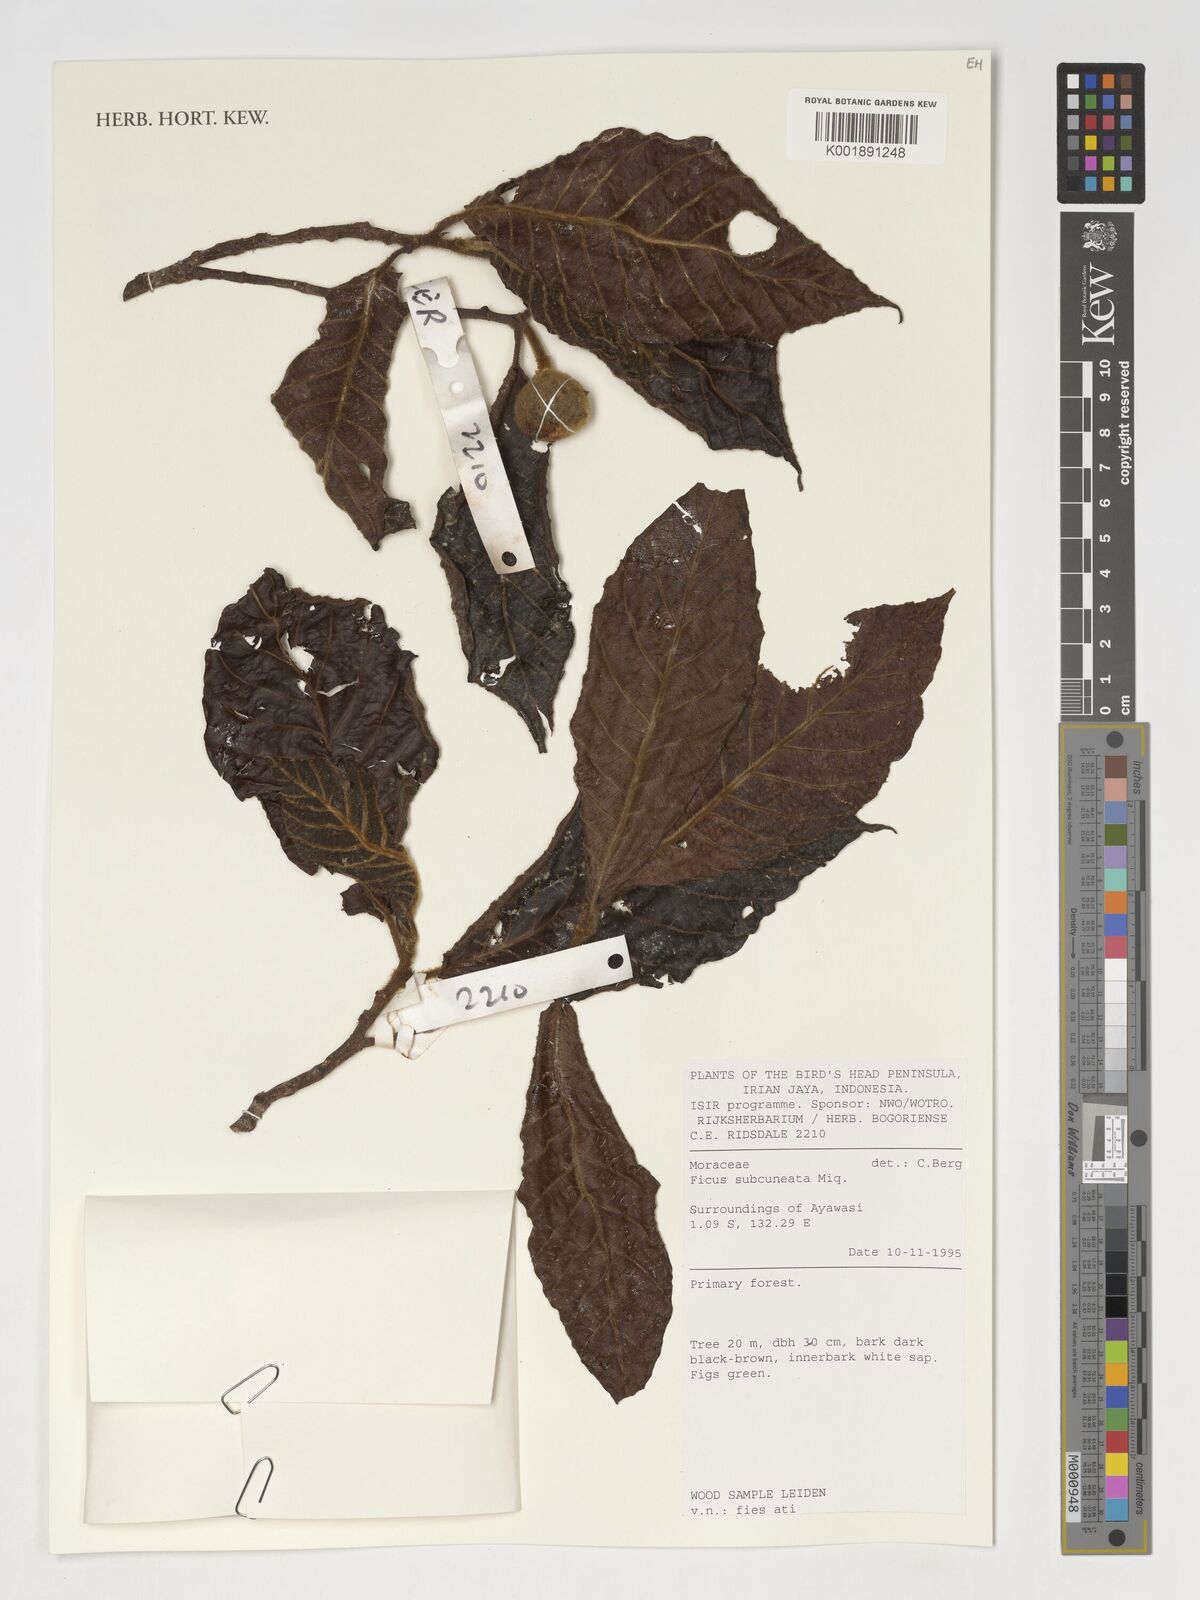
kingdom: Plantae
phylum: Tracheophyta
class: Magnoliopsida
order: Rosales
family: Moraceae
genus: Ficus
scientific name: Ficus subcuneata
